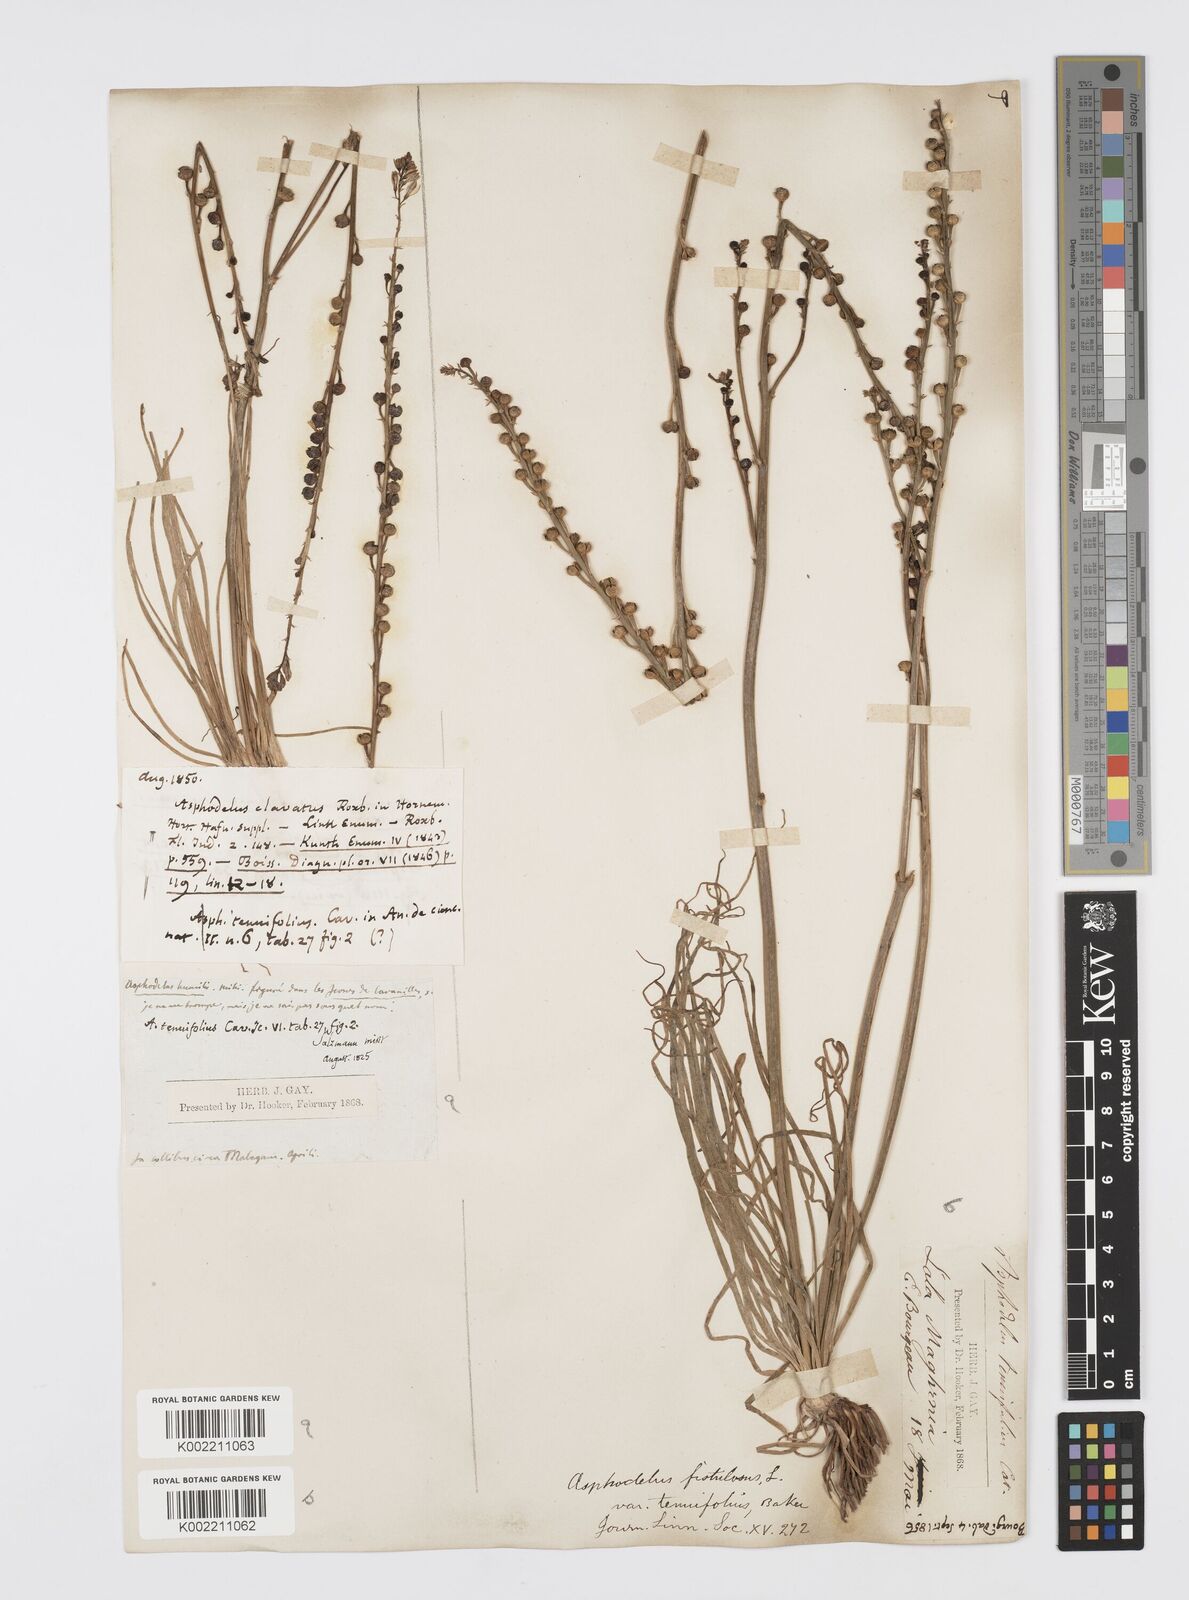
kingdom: Plantae
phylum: Tracheophyta
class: Liliopsida
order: Asparagales
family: Asphodelaceae
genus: Asphodelus
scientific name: Asphodelus tenuifolius
